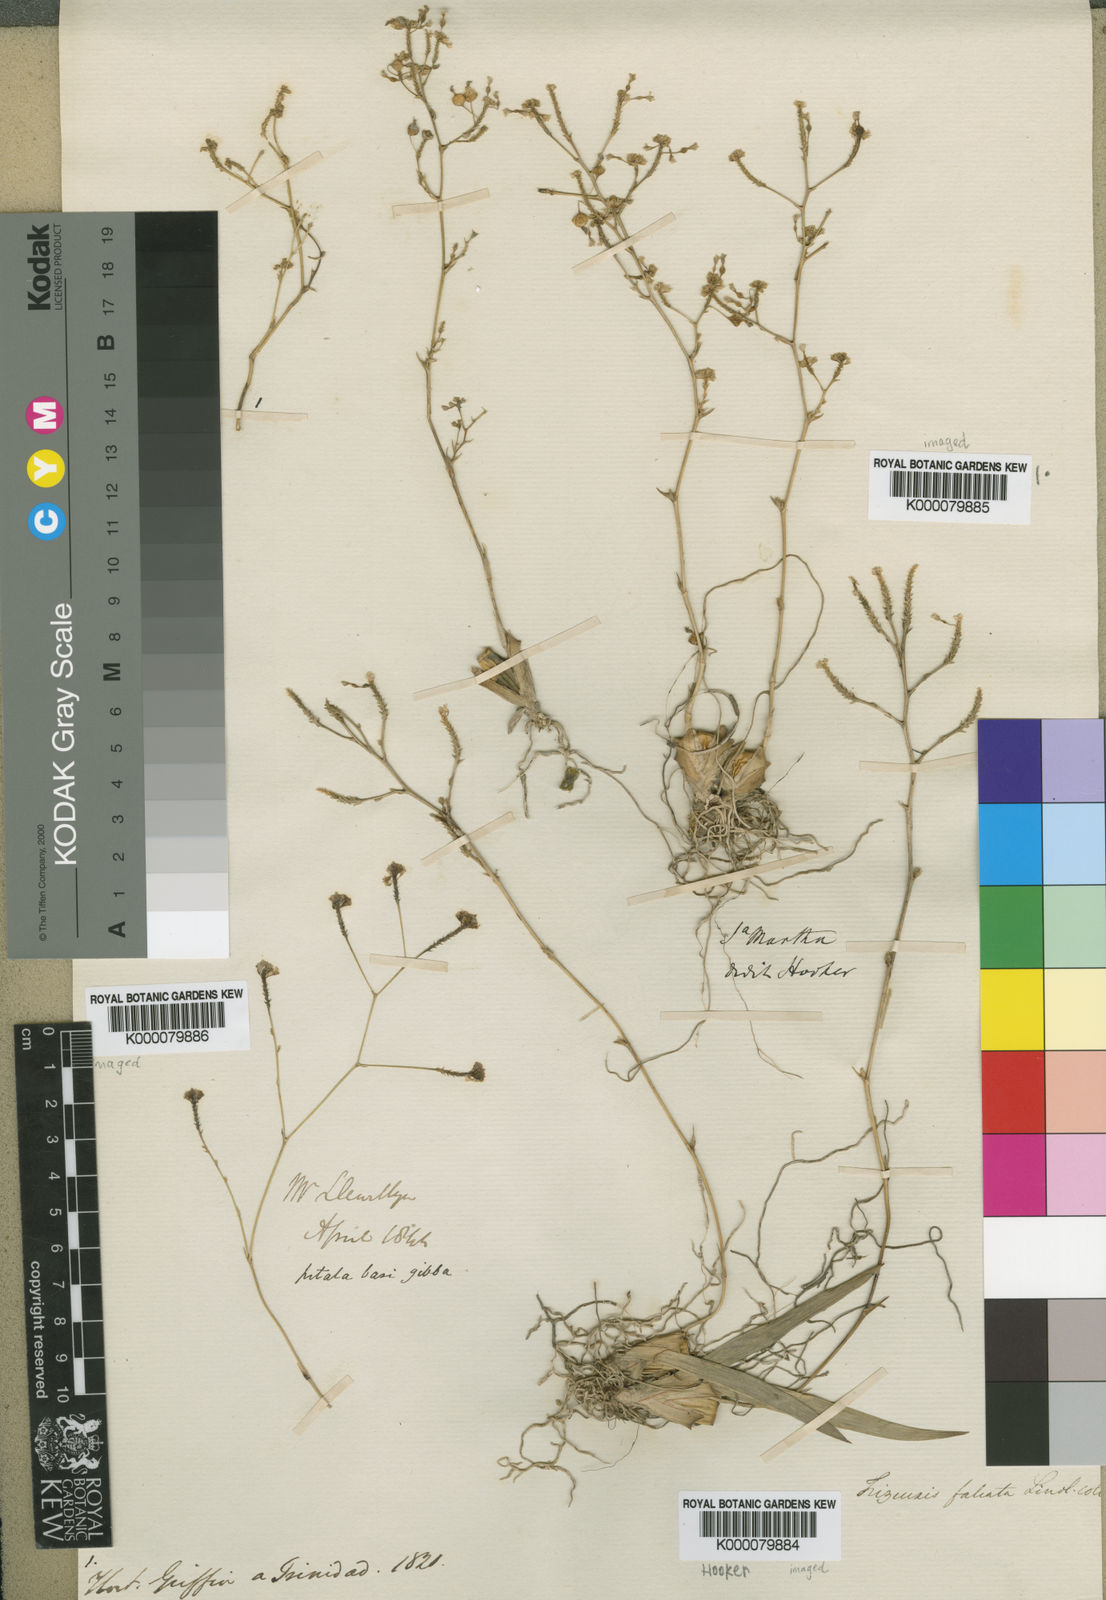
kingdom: Plantae
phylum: Tracheophyta
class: Liliopsida
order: Asparagales
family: Orchidaceae
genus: Trizeuxis
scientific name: Trizeuxis falcata
